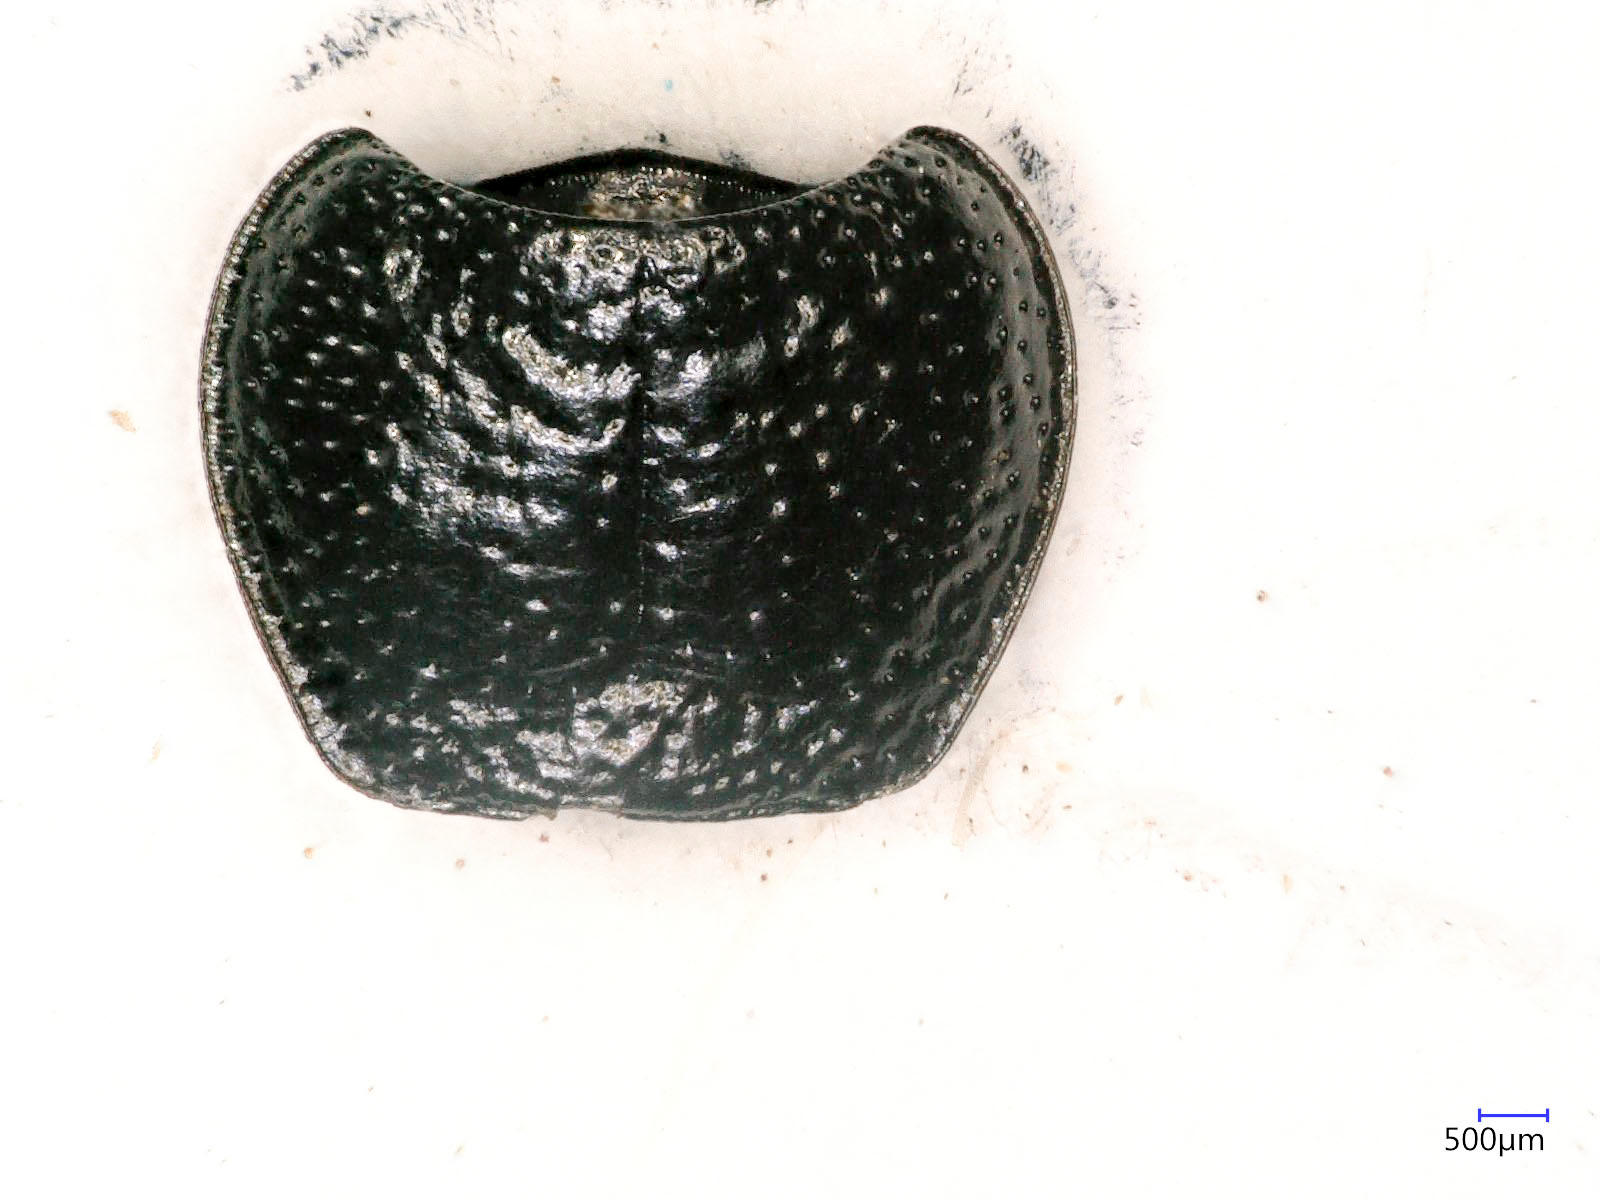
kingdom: Animalia
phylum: Arthropoda
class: Insecta
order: Coleoptera
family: Carabidae
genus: Dicheirus
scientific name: Dicheirus dilatatus
